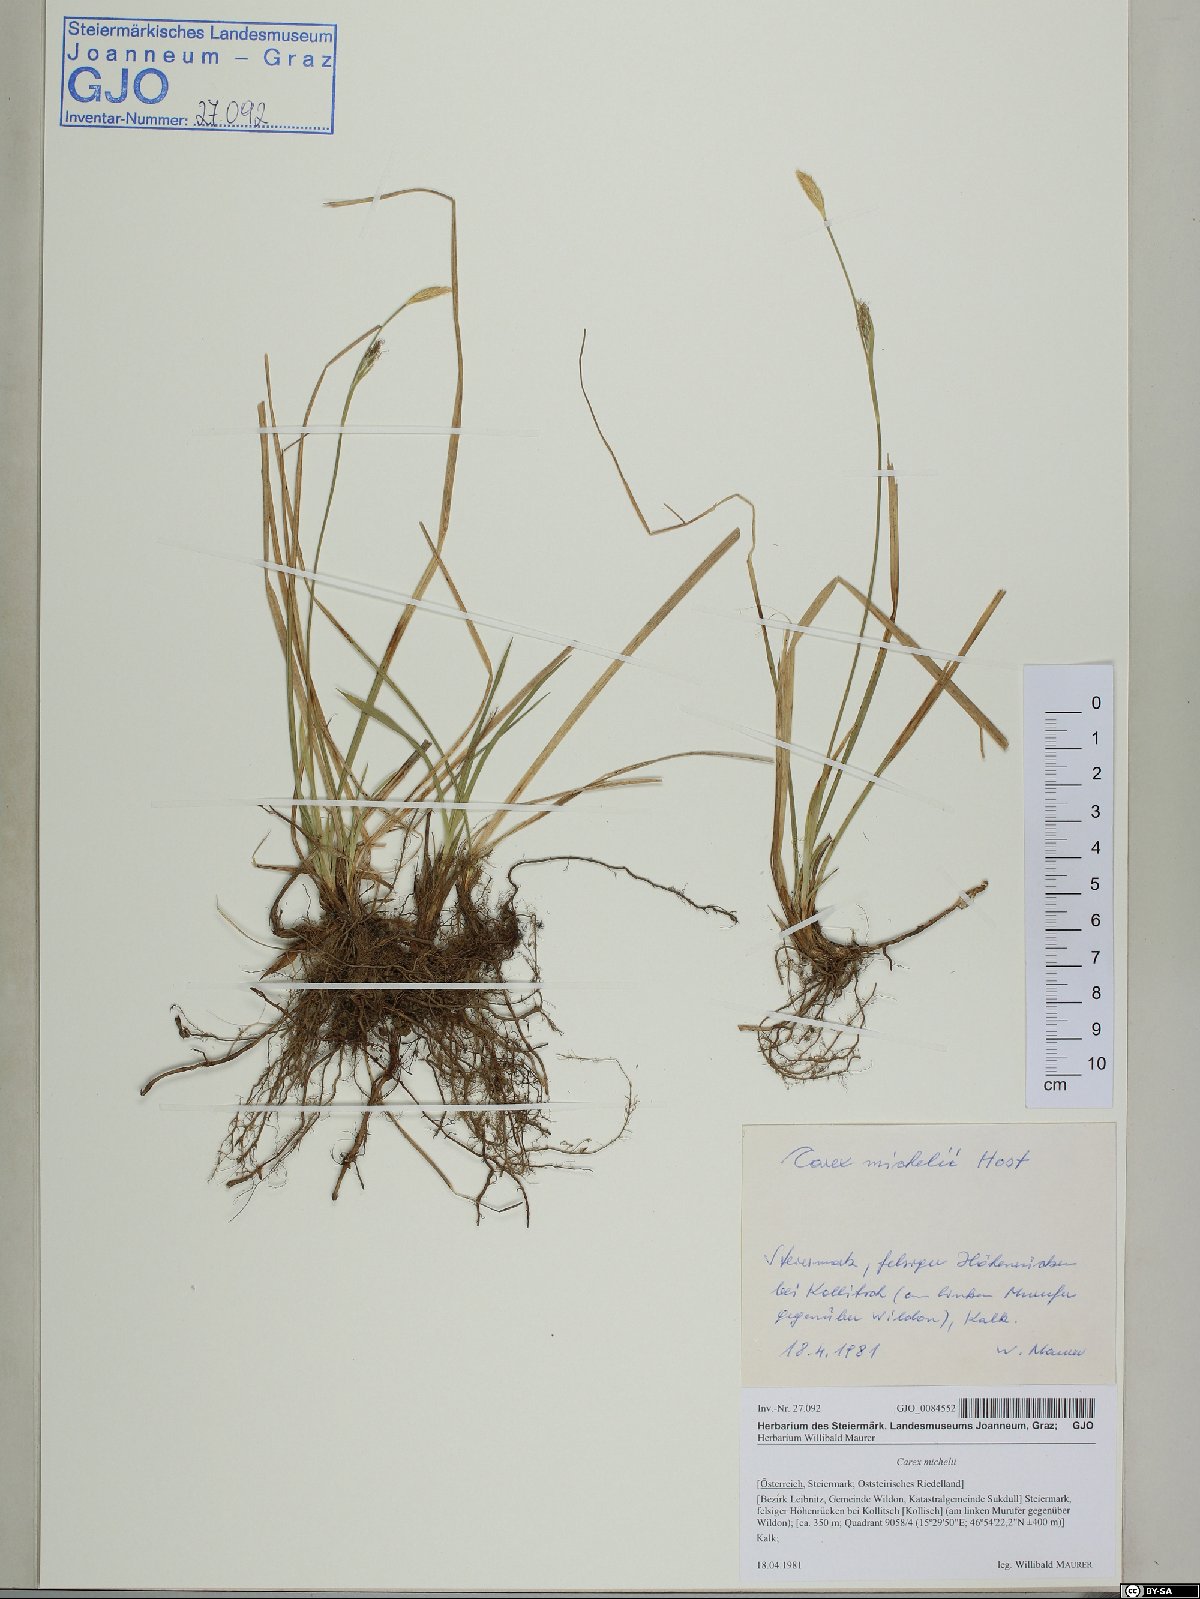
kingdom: Plantae
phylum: Tracheophyta
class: Liliopsida
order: Poales
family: Cyperaceae
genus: Carex
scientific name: Carex michelii
